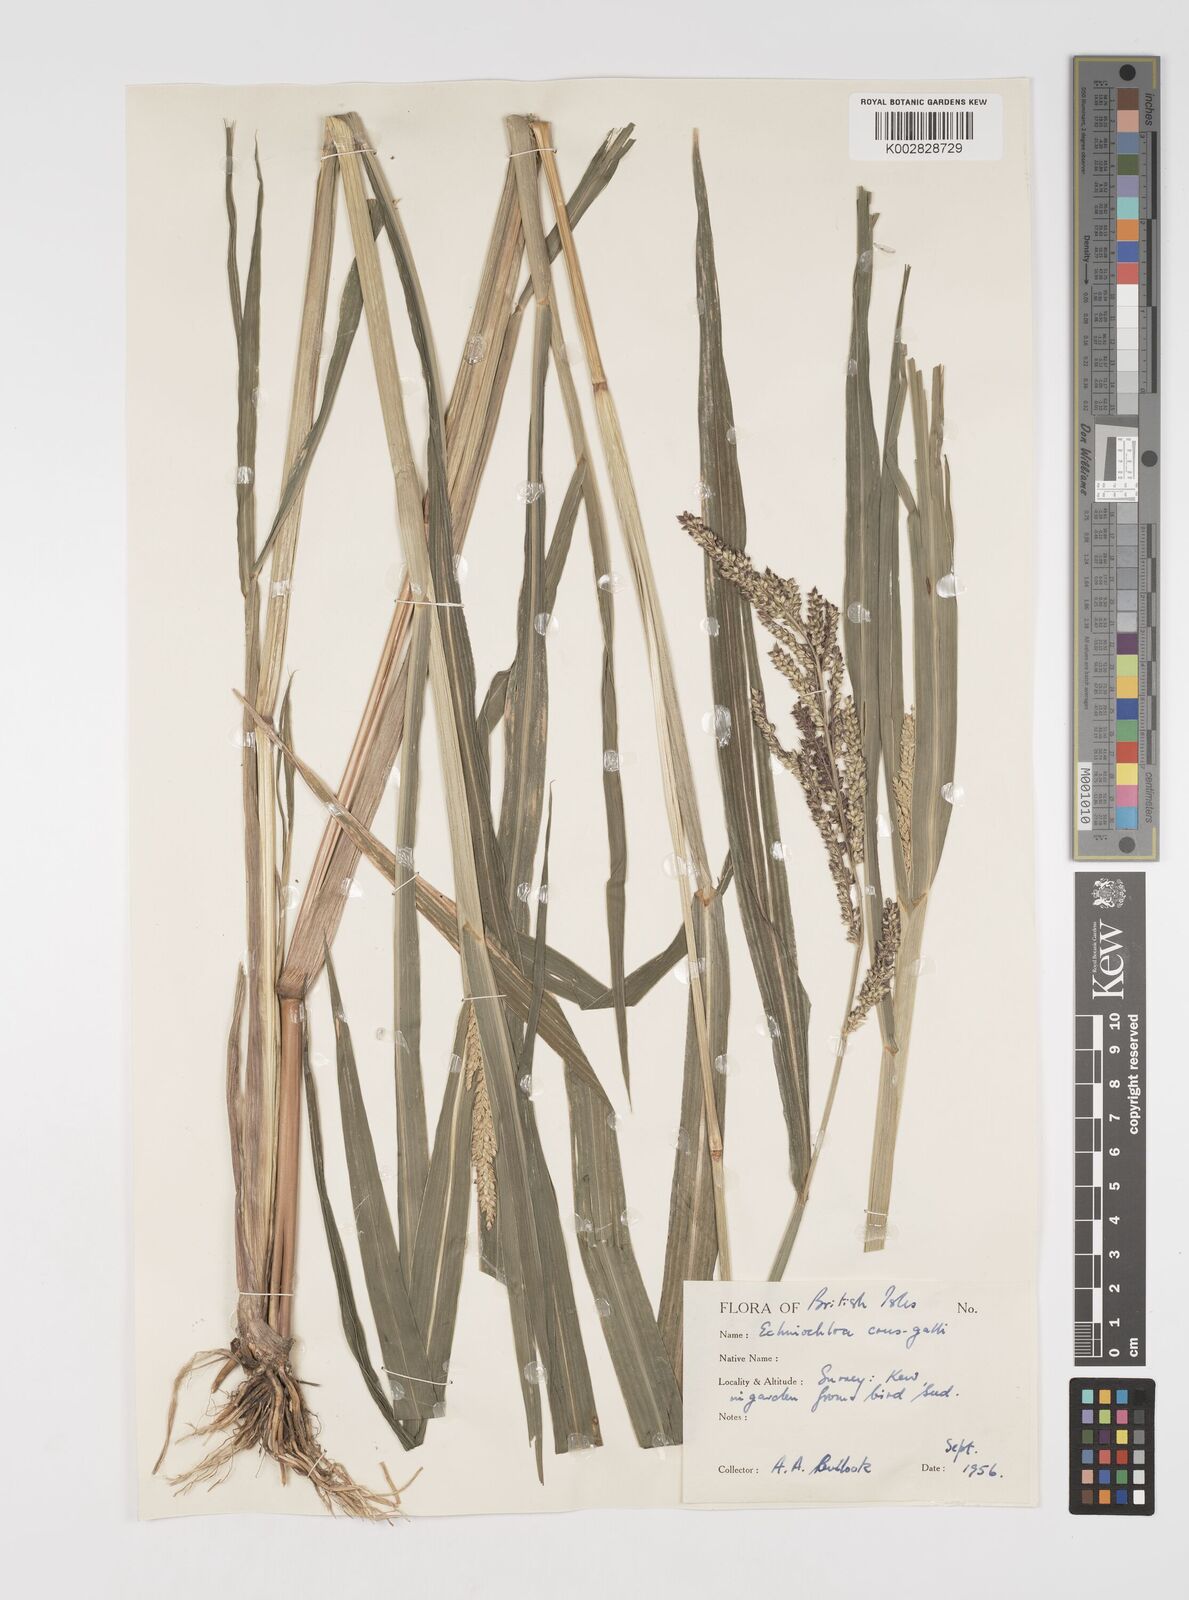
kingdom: Plantae
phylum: Tracheophyta
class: Liliopsida
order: Poales
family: Poaceae
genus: Echinochloa
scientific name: Echinochloa crus-galli
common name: Cockspur
